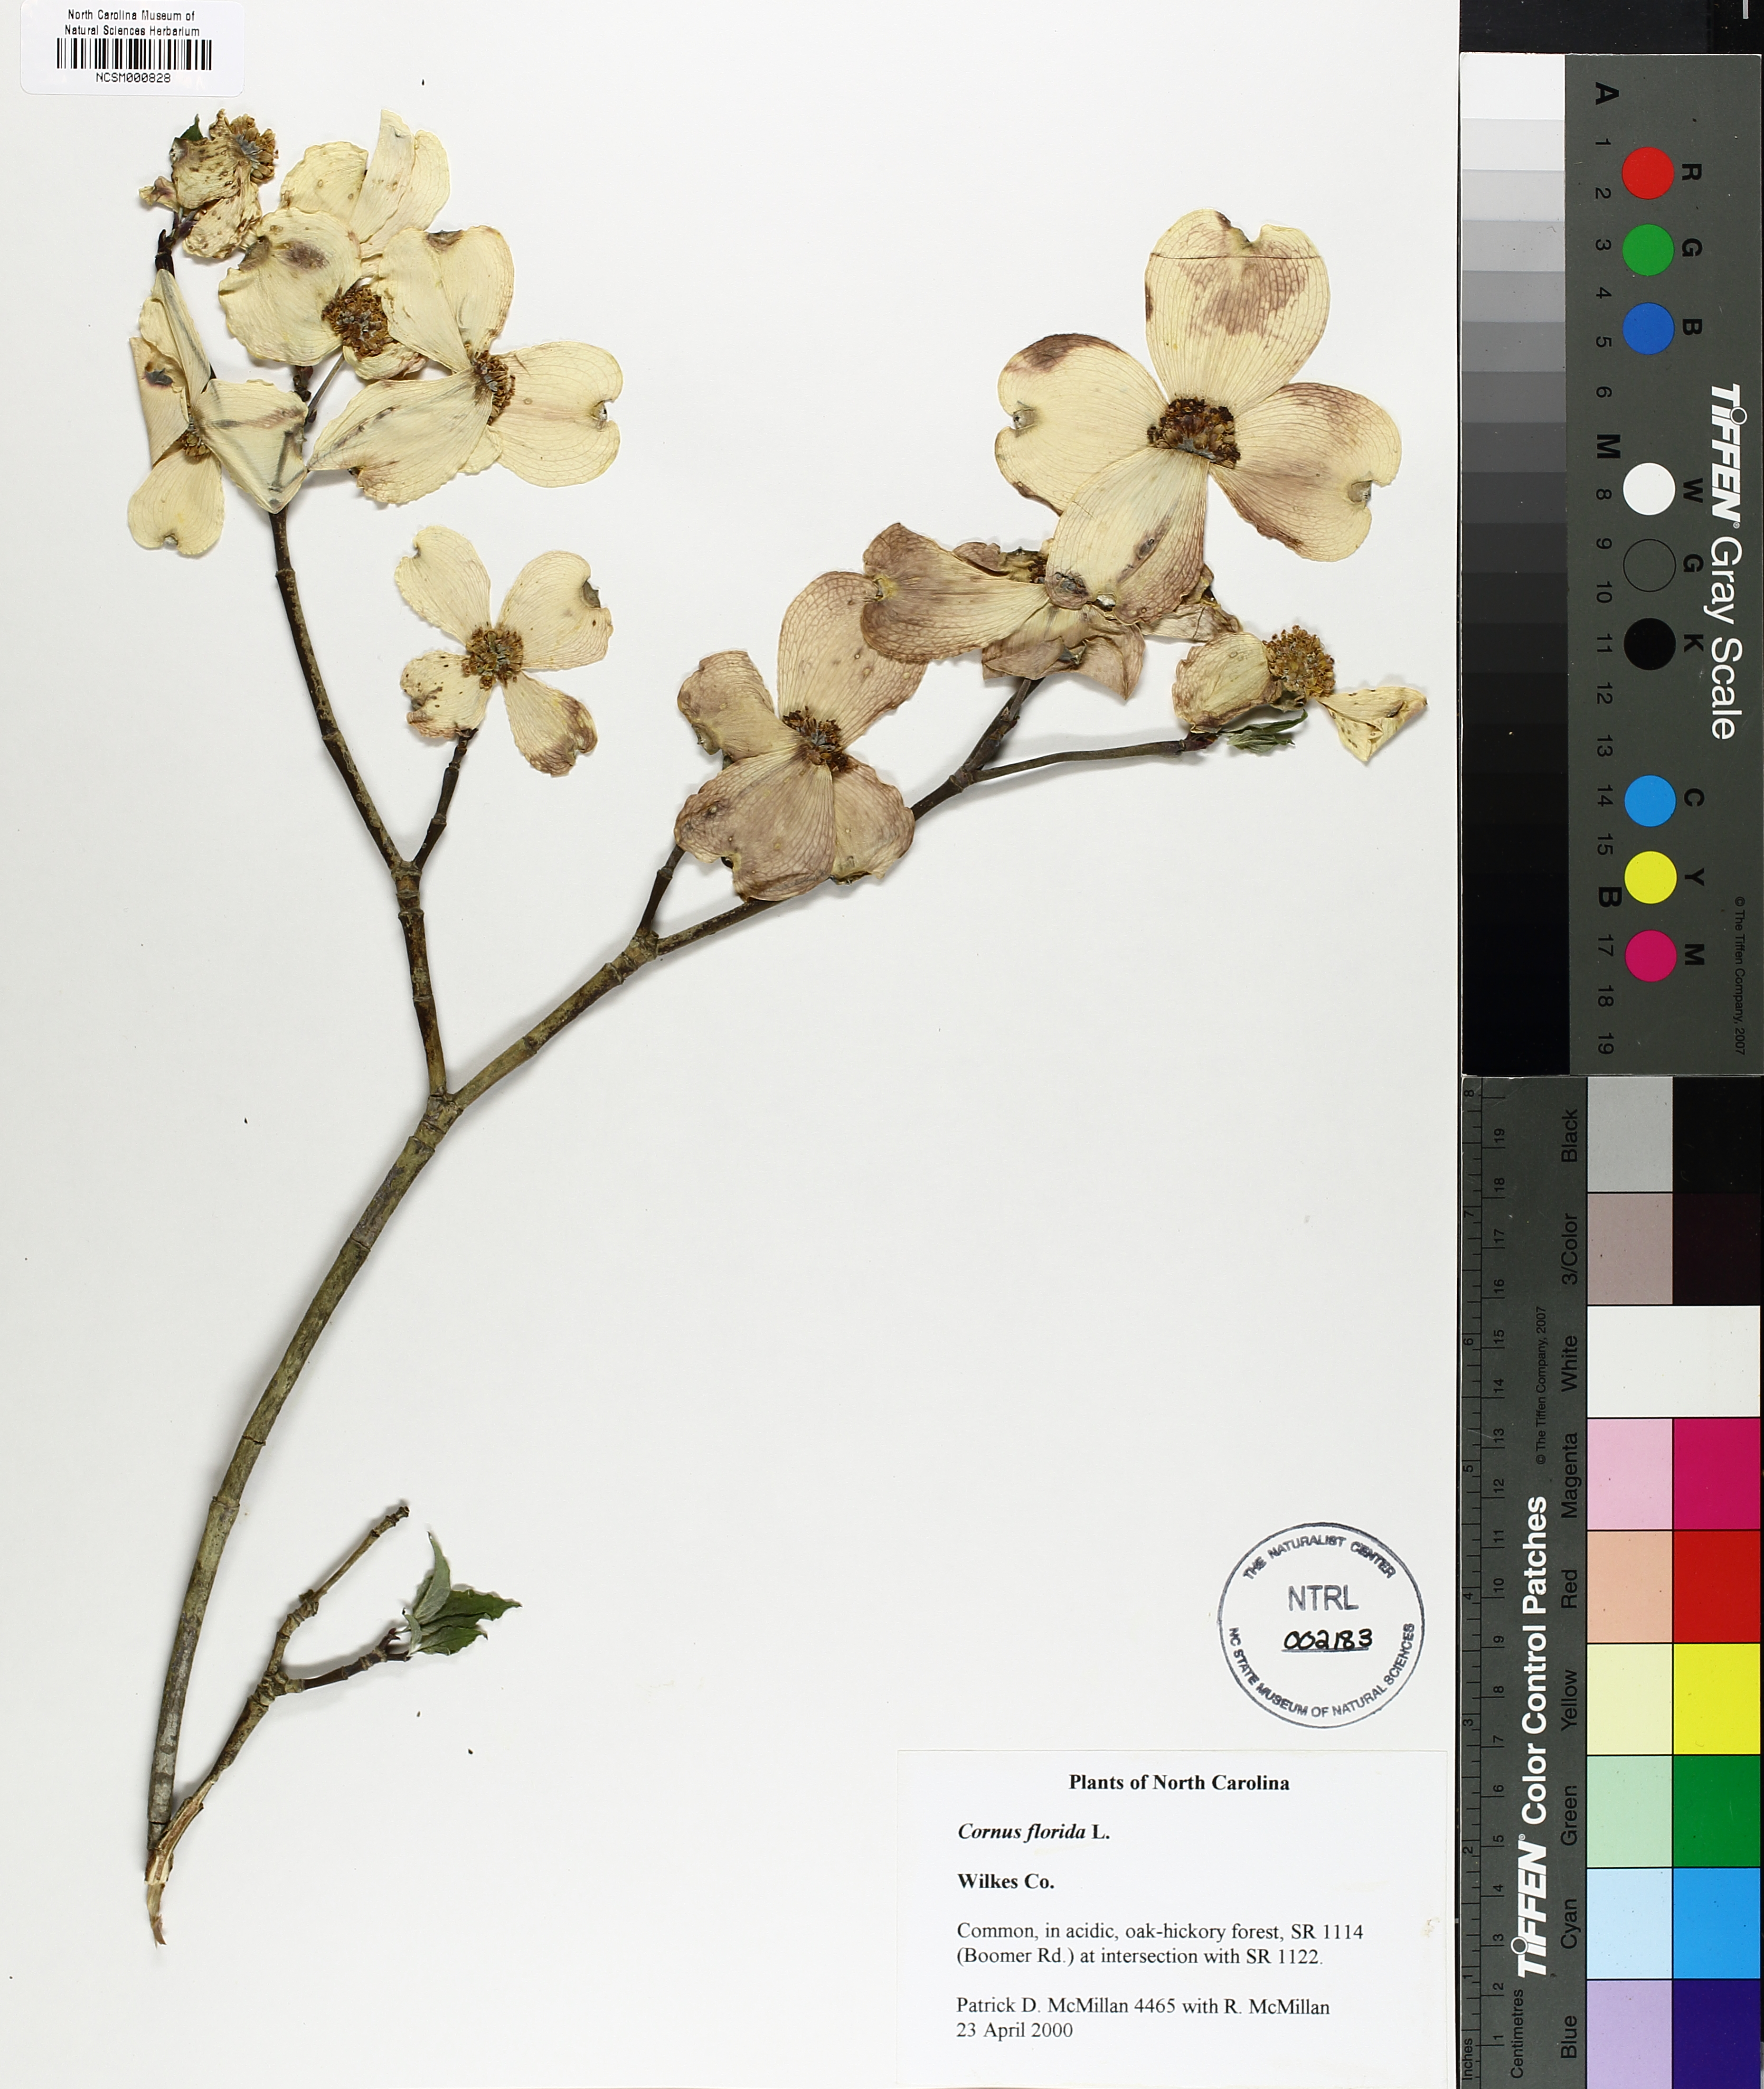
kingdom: Plantae
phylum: Tracheophyta
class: Magnoliopsida
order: Cornales
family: Cornaceae
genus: Cornus
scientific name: Cornus florida
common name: Flowering dogwood
